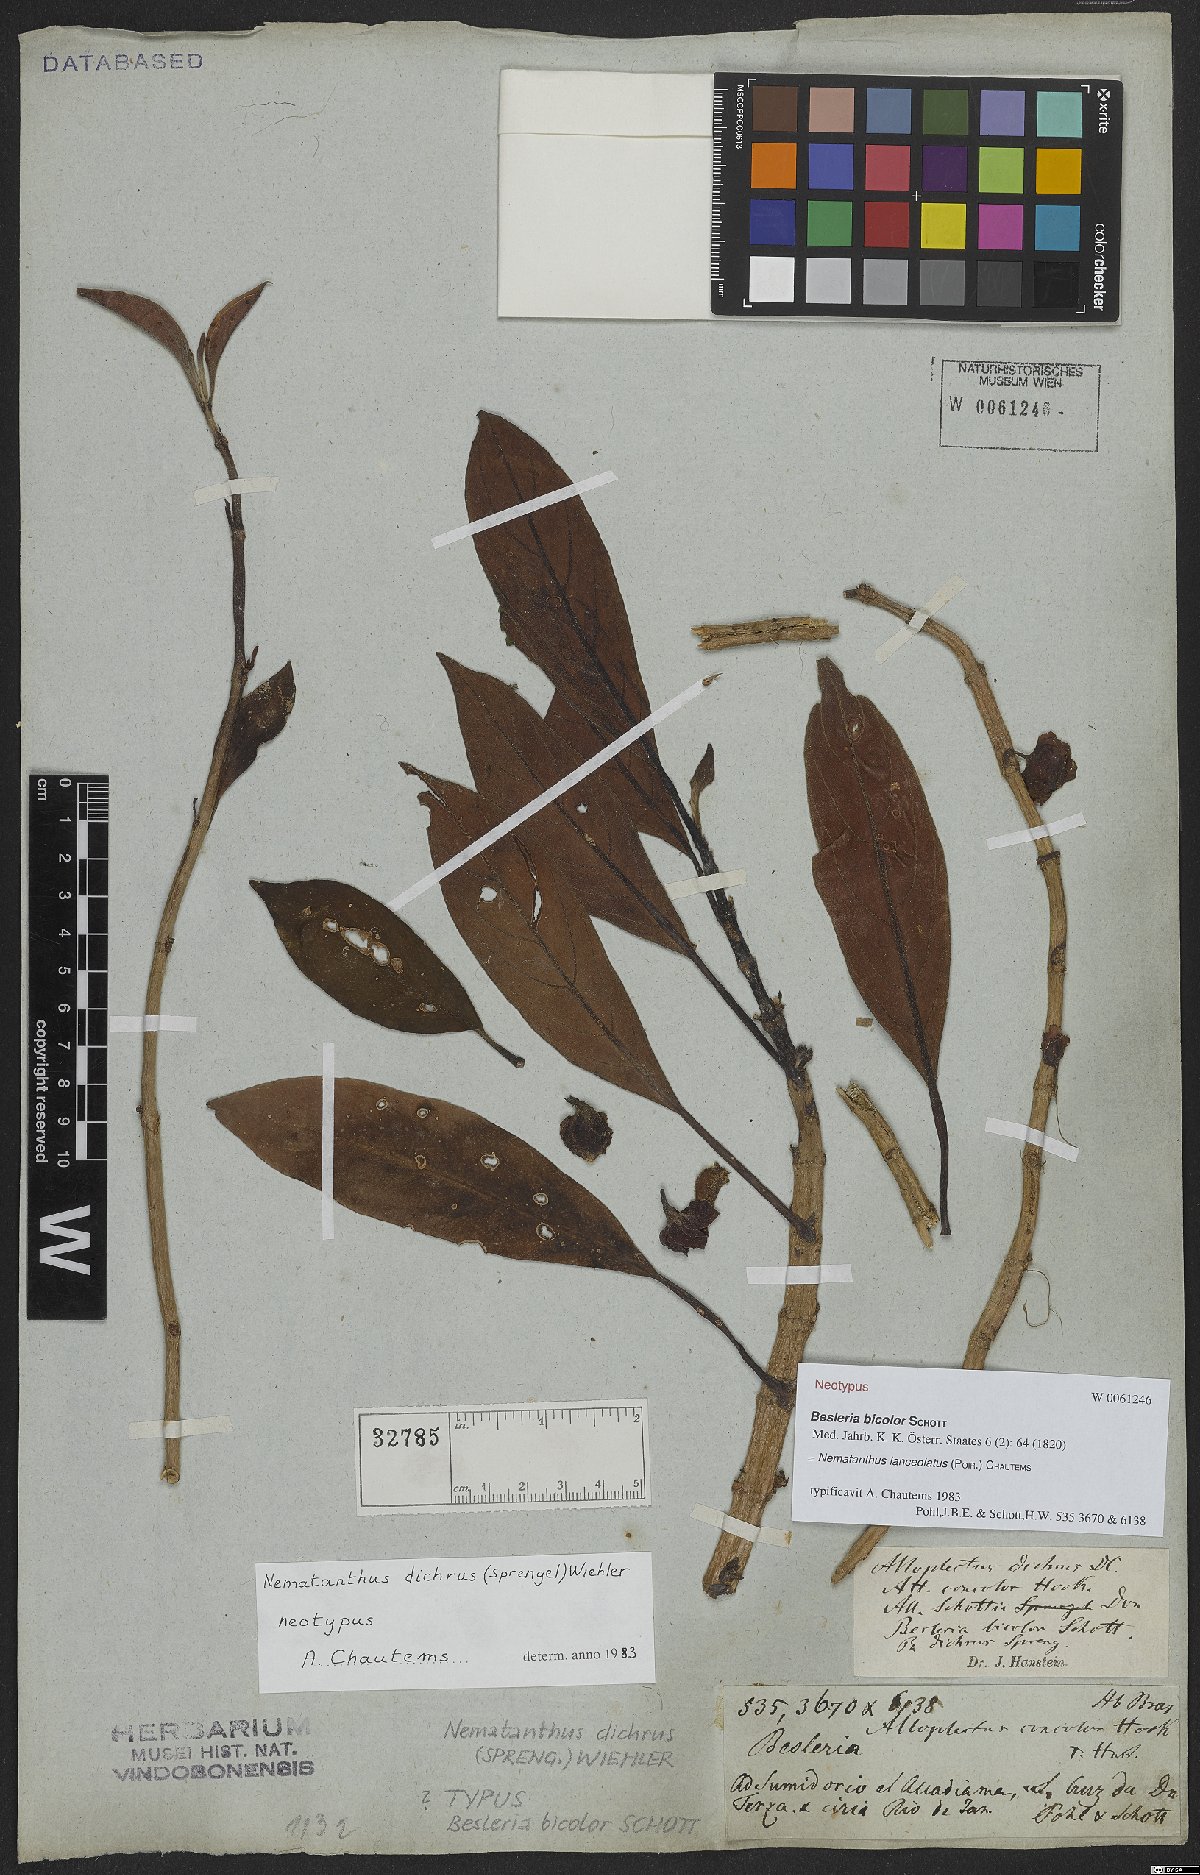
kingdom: Plantae
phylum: Tracheophyta
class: Magnoliopsida
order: Lamiales
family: Gesneriaceae
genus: Nematanthus
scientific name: Nematanthus lanceolatus
